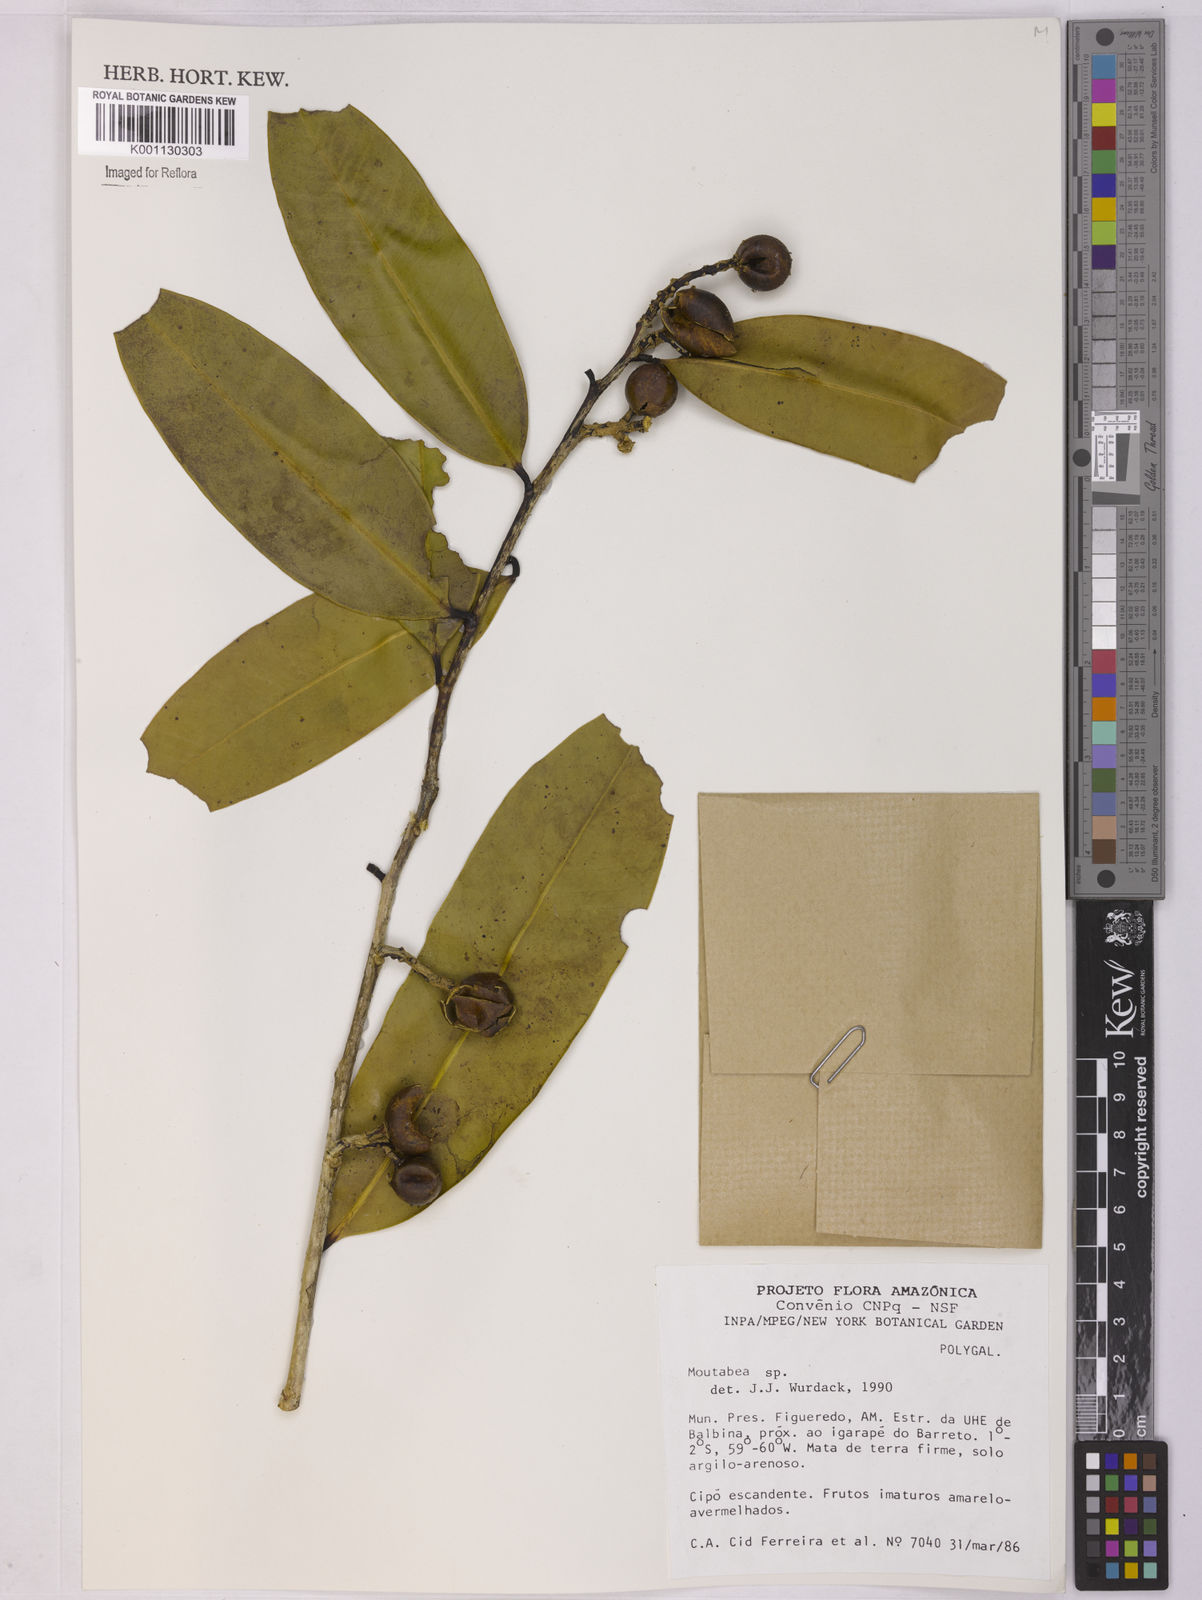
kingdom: Plantae
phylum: Tracheophyta
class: Magnoliopsida
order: Fabales
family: Polygalaceae
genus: Moutabea
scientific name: Moutabea
